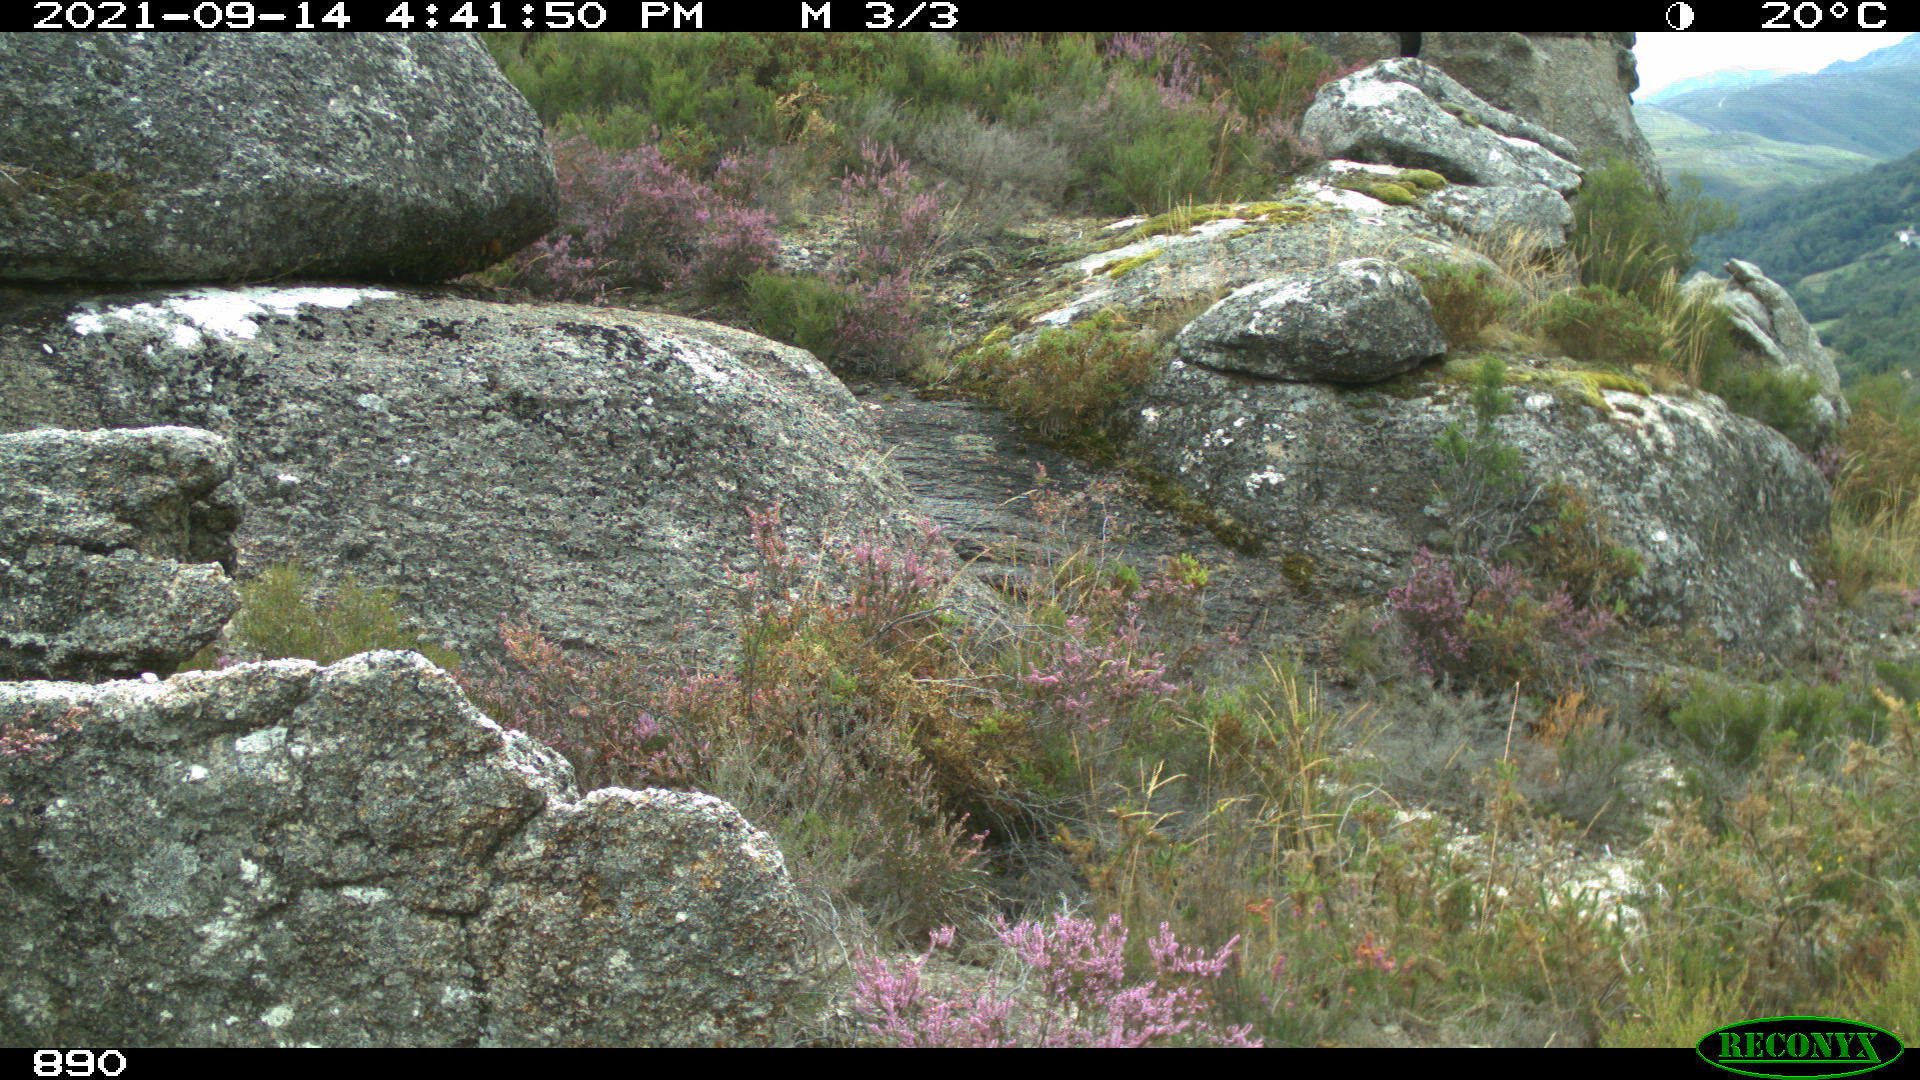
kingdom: Animalia
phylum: Chordata
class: Mammalia
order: Artiodactyla
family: Bovidae
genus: Capra
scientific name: Capra pyrenaica
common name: Spanish ibex
